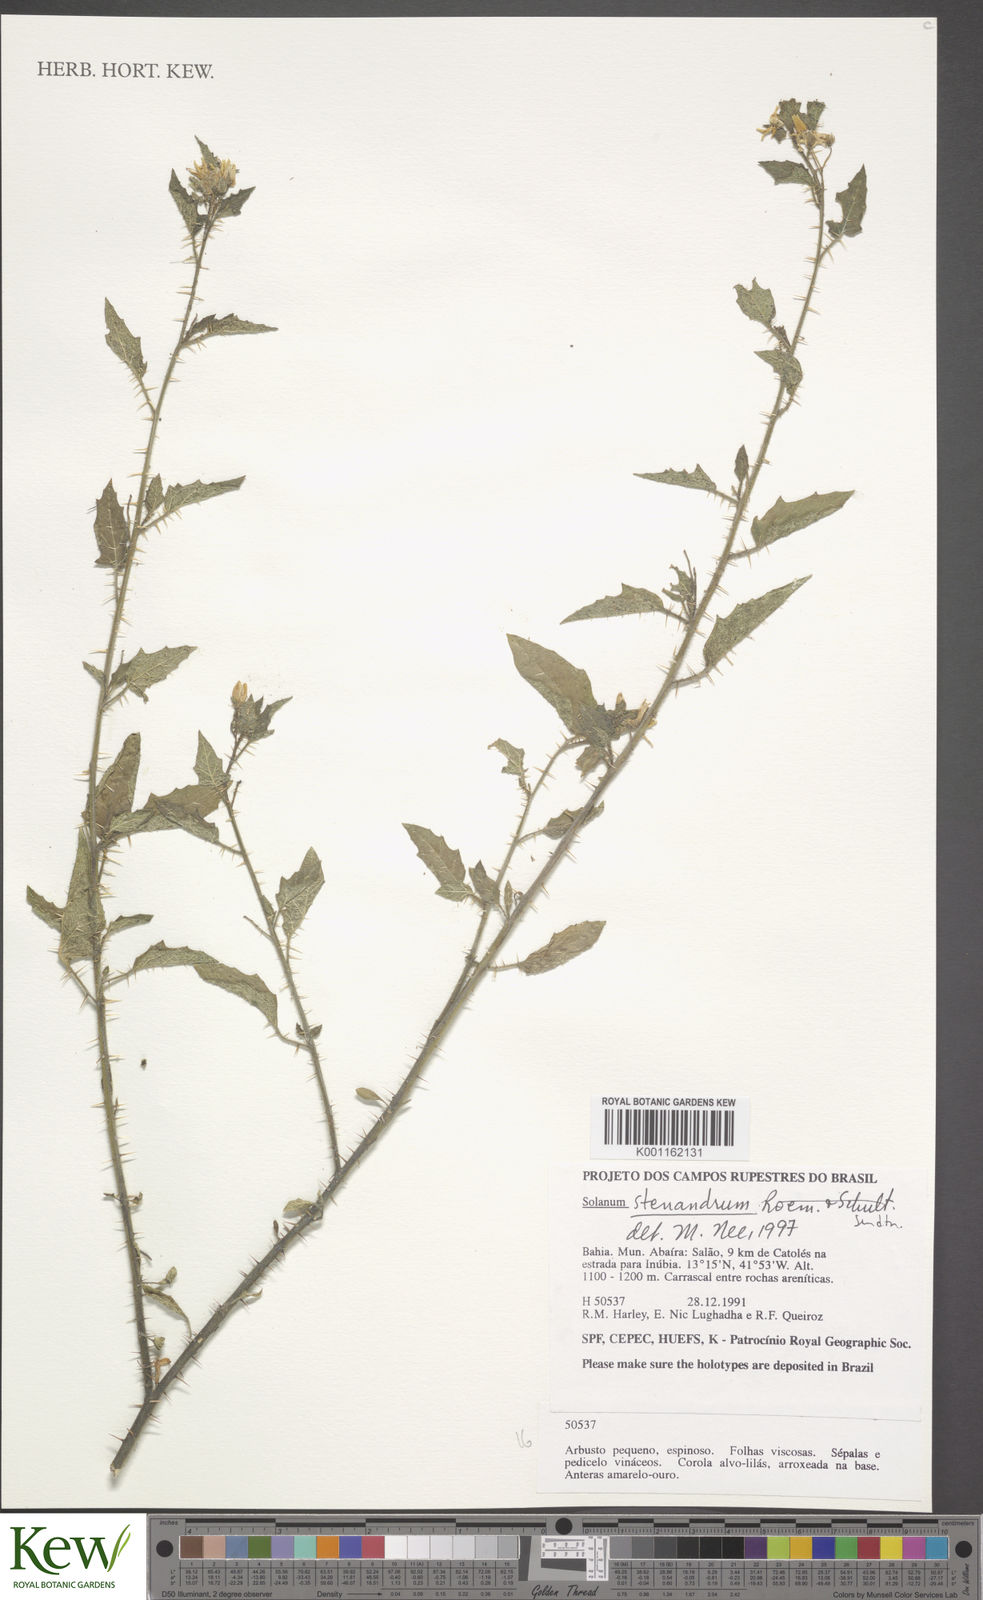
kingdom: Plantae
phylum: Tracheophyta
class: Magnoliopsida
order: Solanales
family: Solanaceae
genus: Solanum
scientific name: Solanum stenandrum
